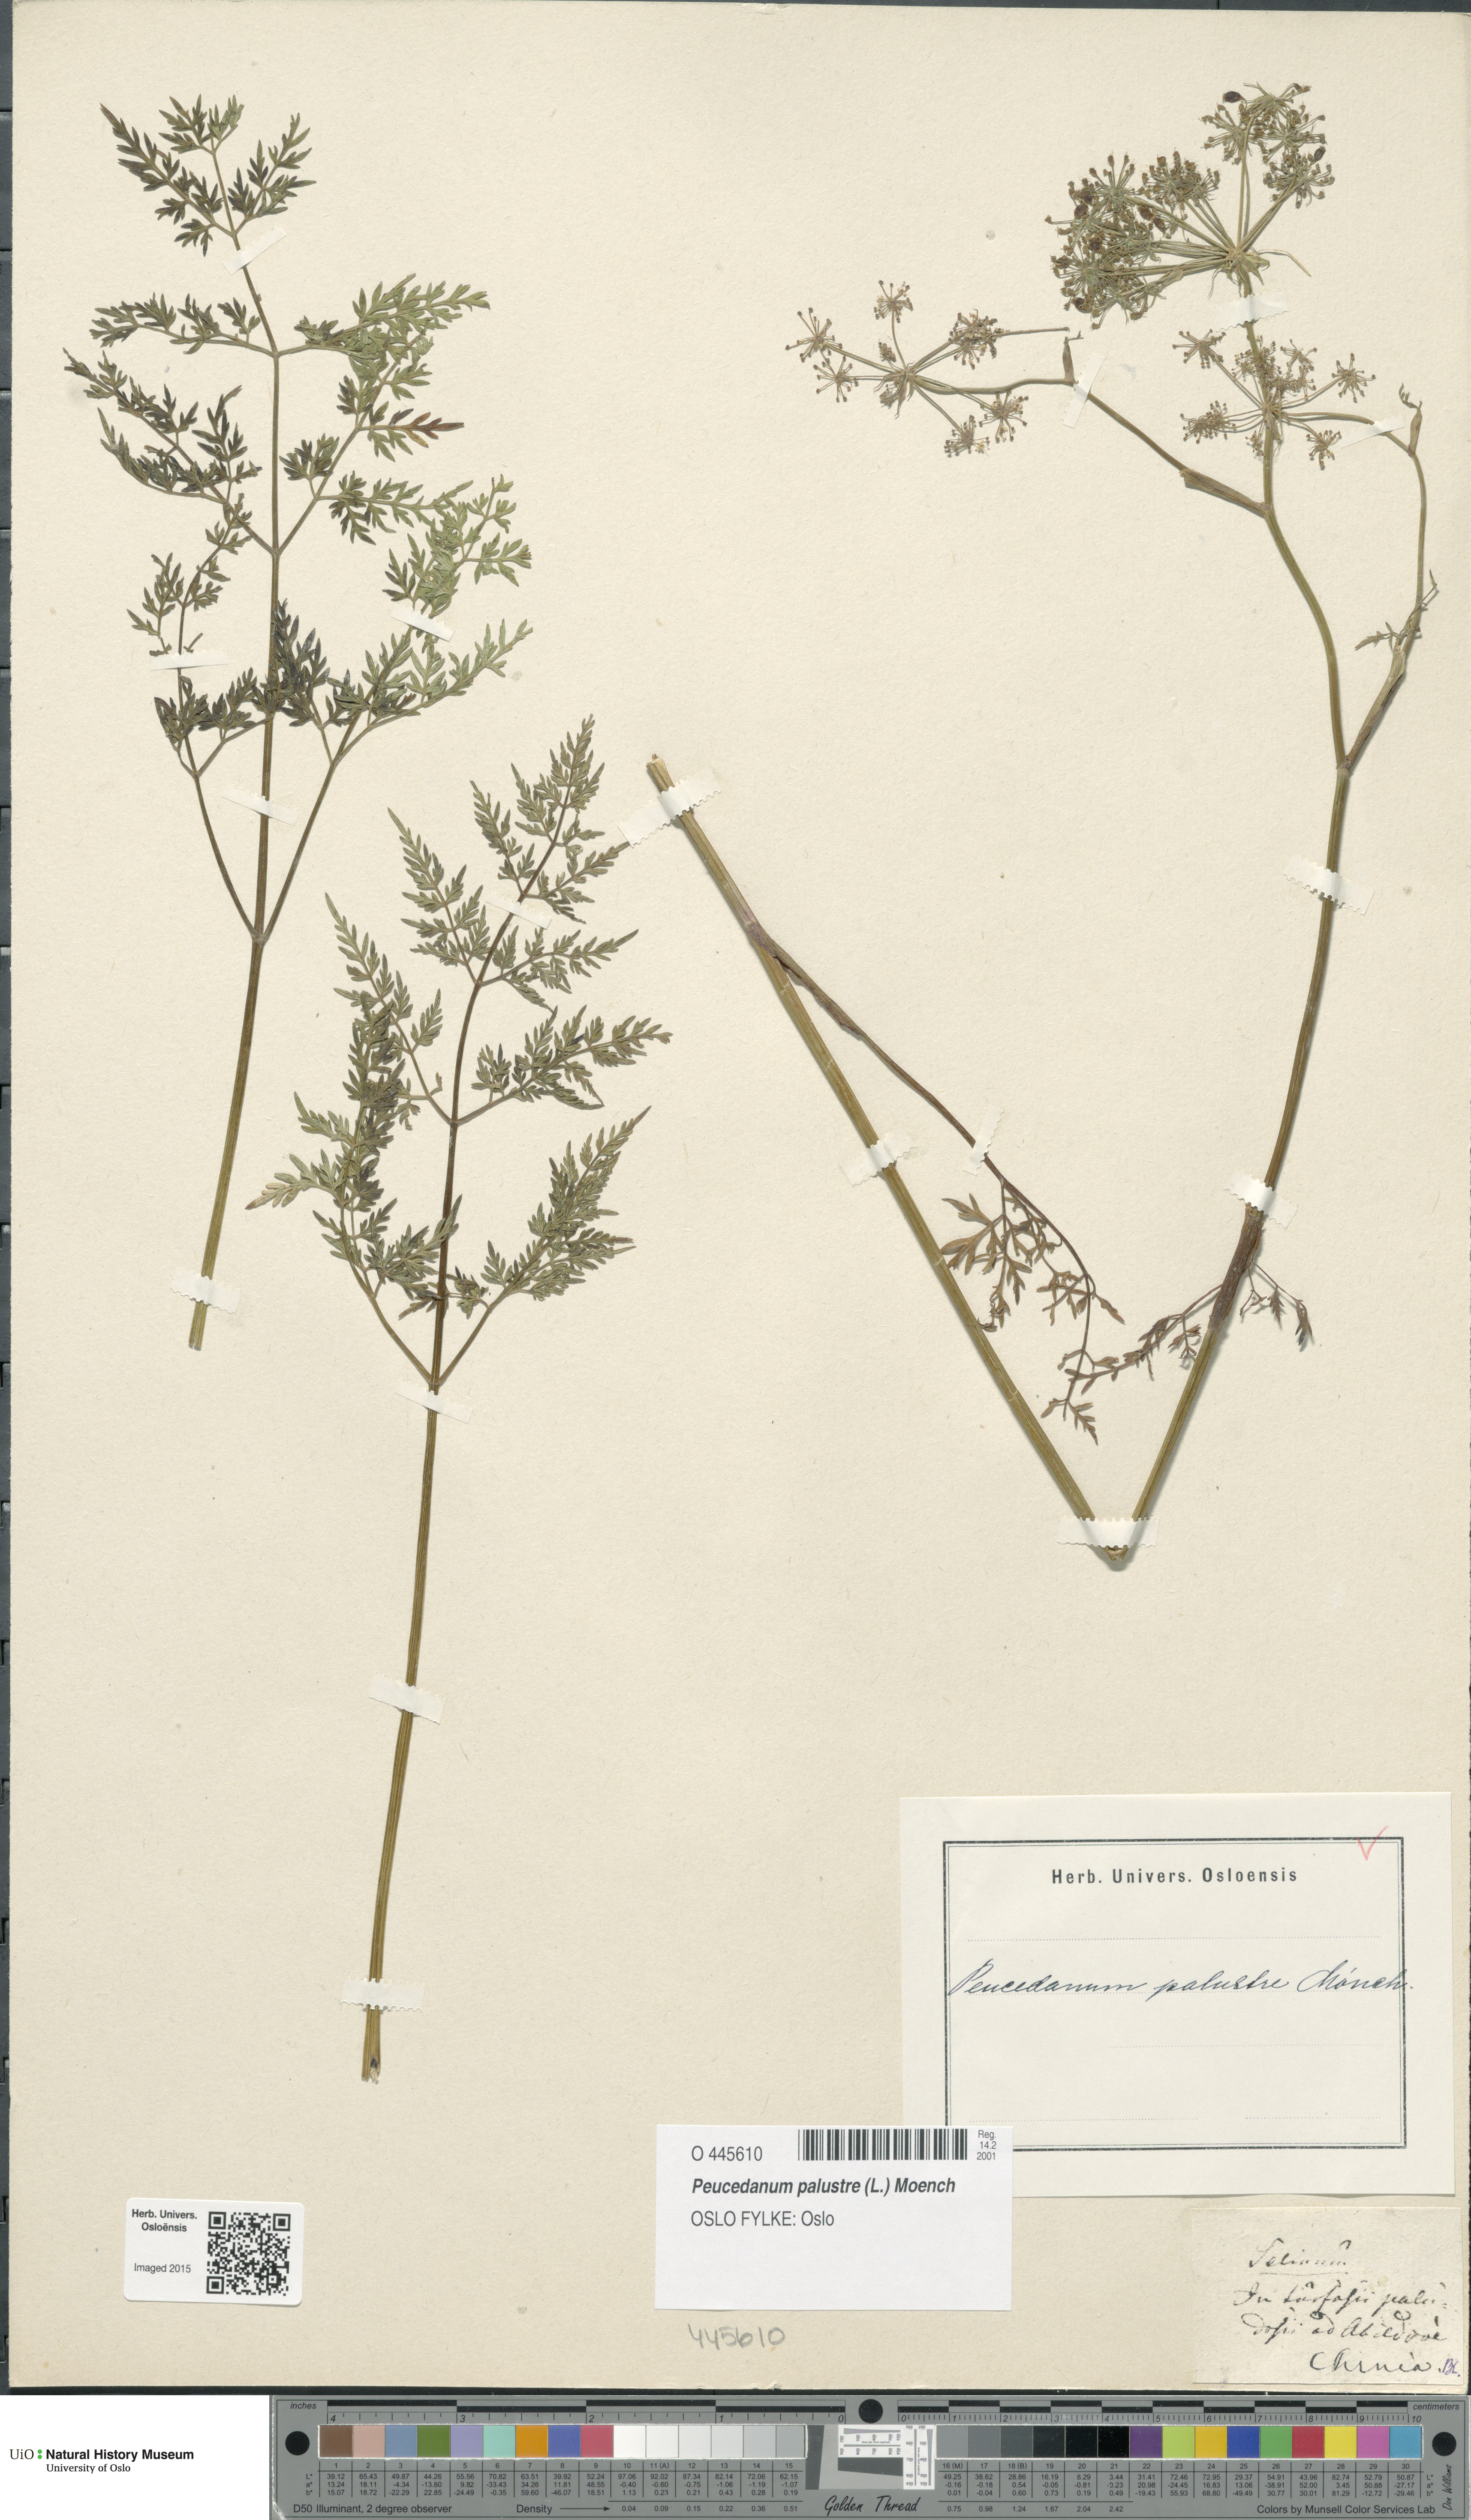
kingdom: Plantae
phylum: Tracheophyta
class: Magnoliopsida
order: Apiales
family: Apiaceae
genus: Thysselinum
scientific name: Thysselinum palustre
